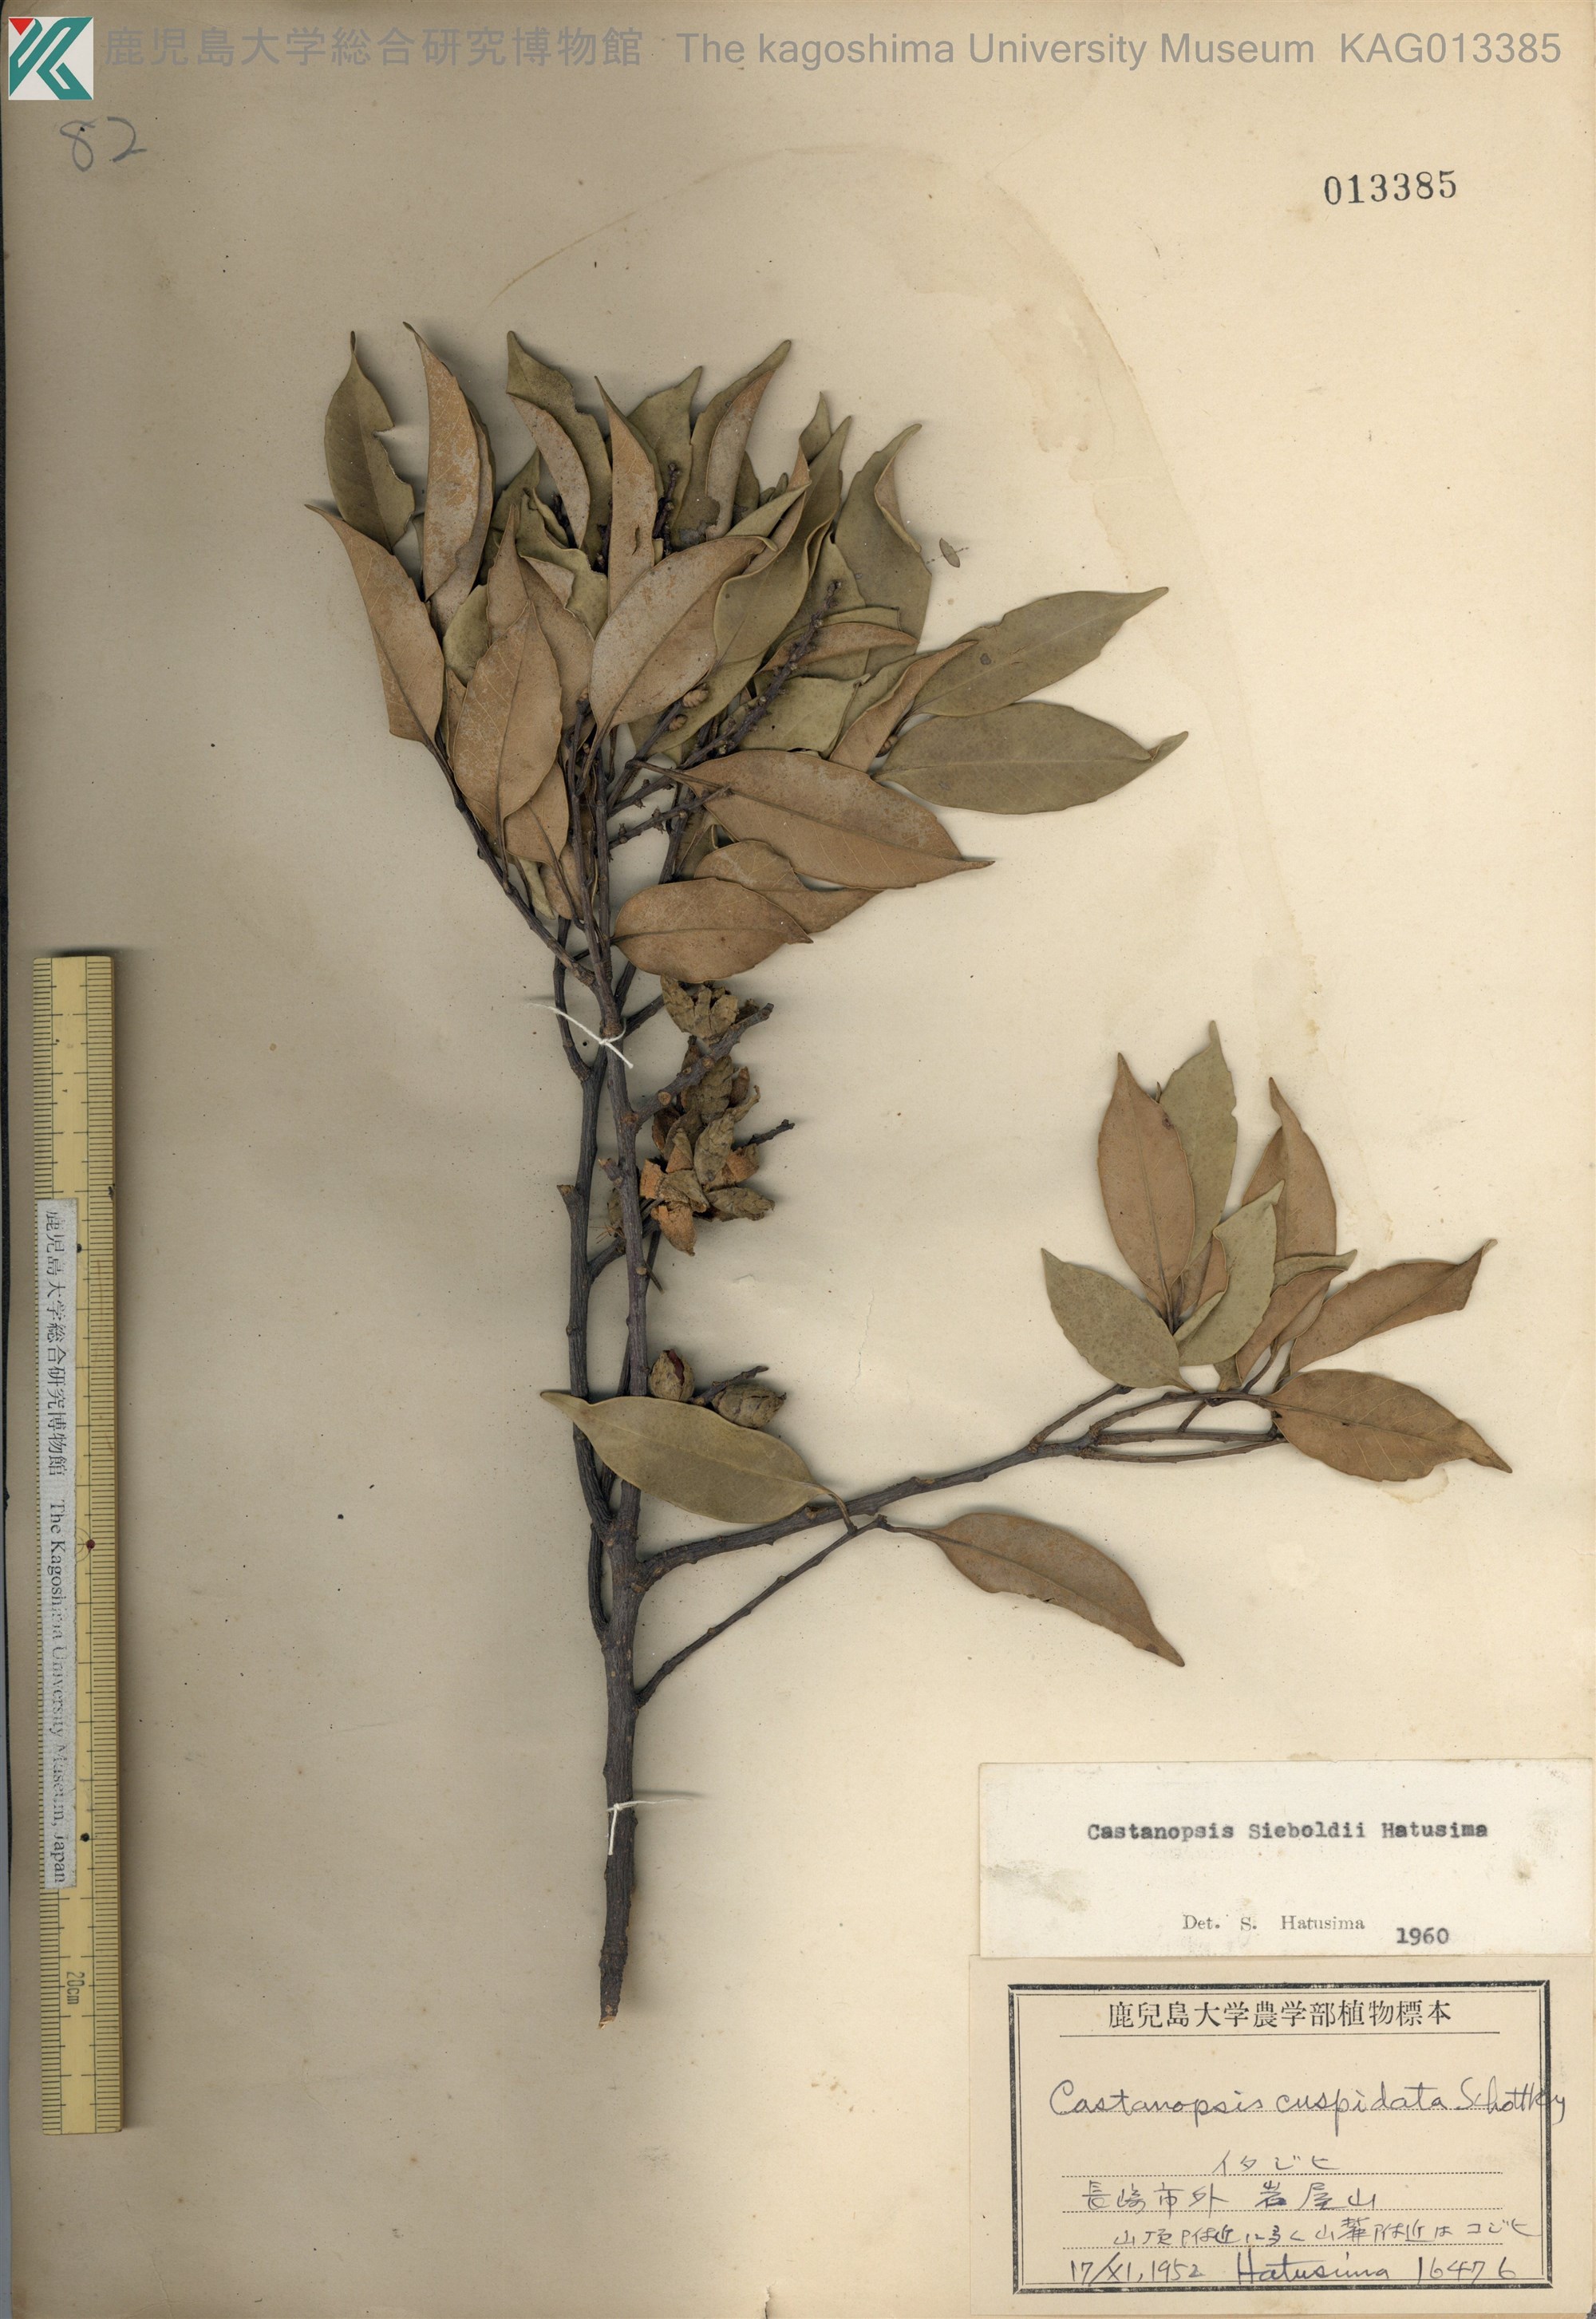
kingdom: Plantae
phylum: Tracheophyta
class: Magnoliopsida
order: Fagales
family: Fagaceae
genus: Castanopsis
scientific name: Castanopsis sieboldii
